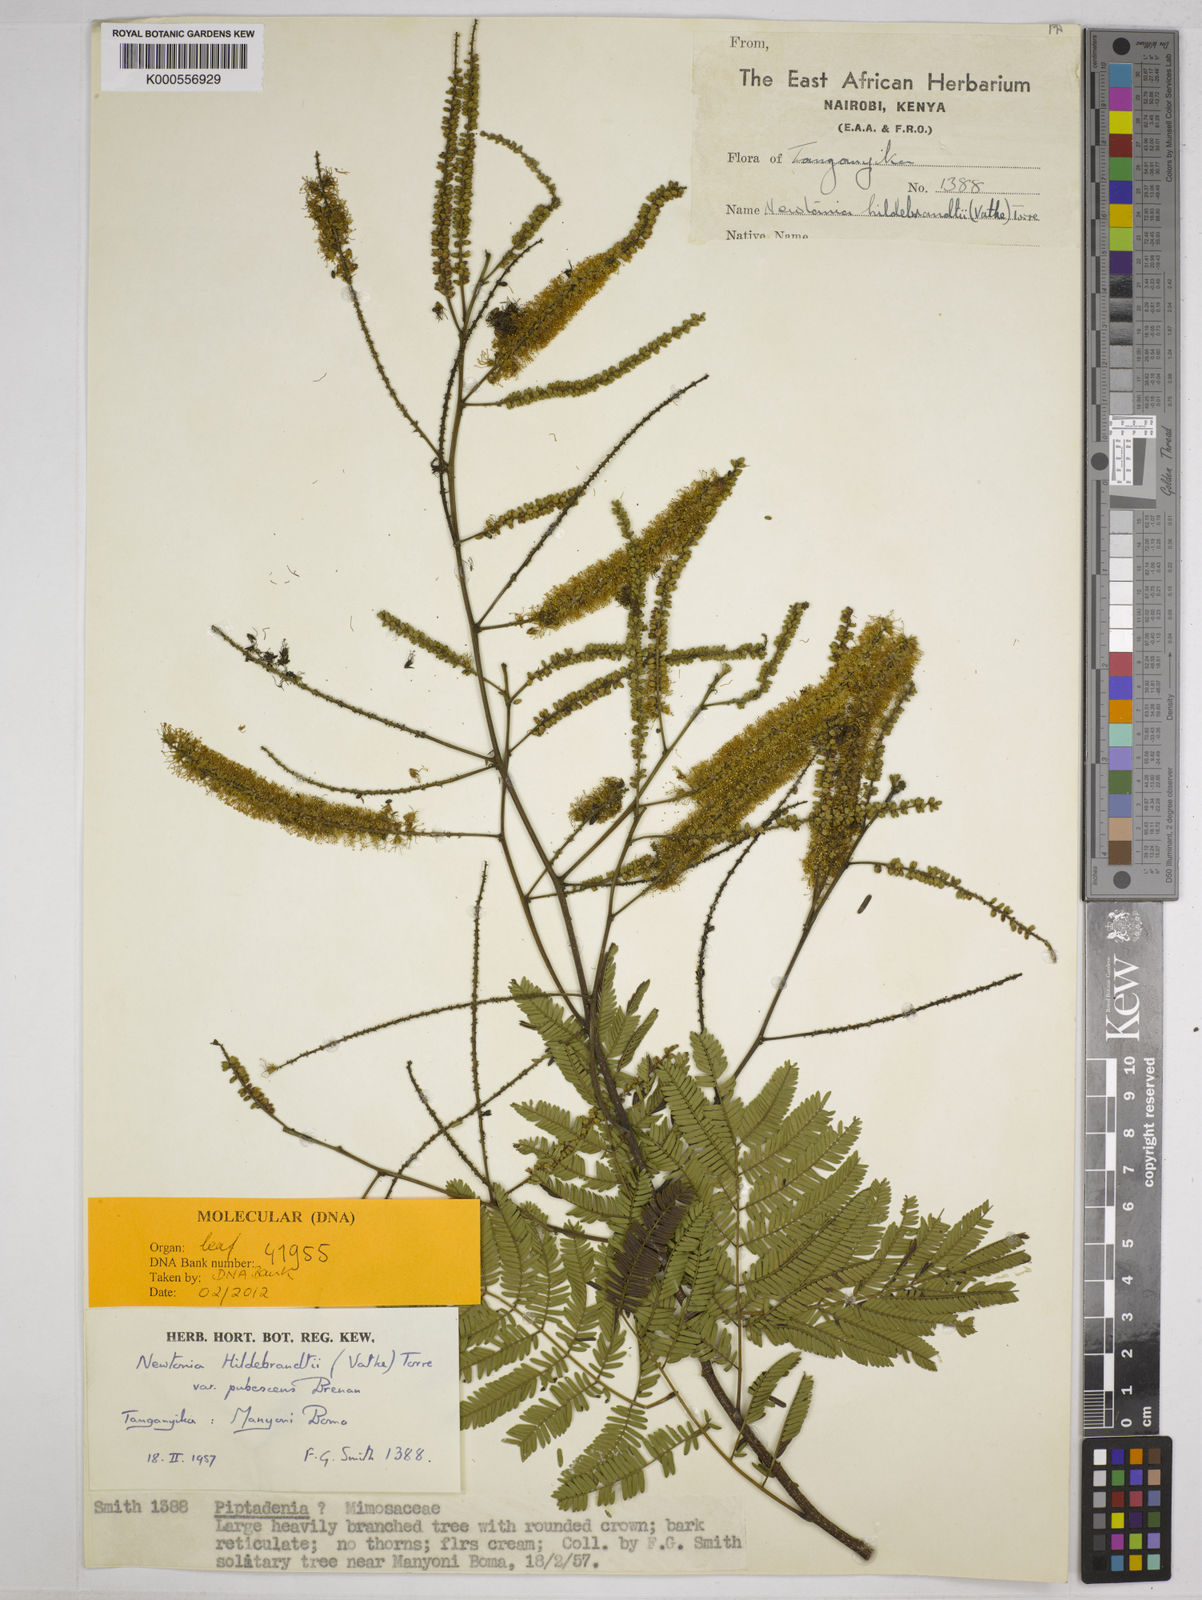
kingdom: Plantae
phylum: Tracheophyta
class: Magnoliopsida
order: Fabales
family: Fabaceae
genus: Newtonia
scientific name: Newtonia hildebrandtii
